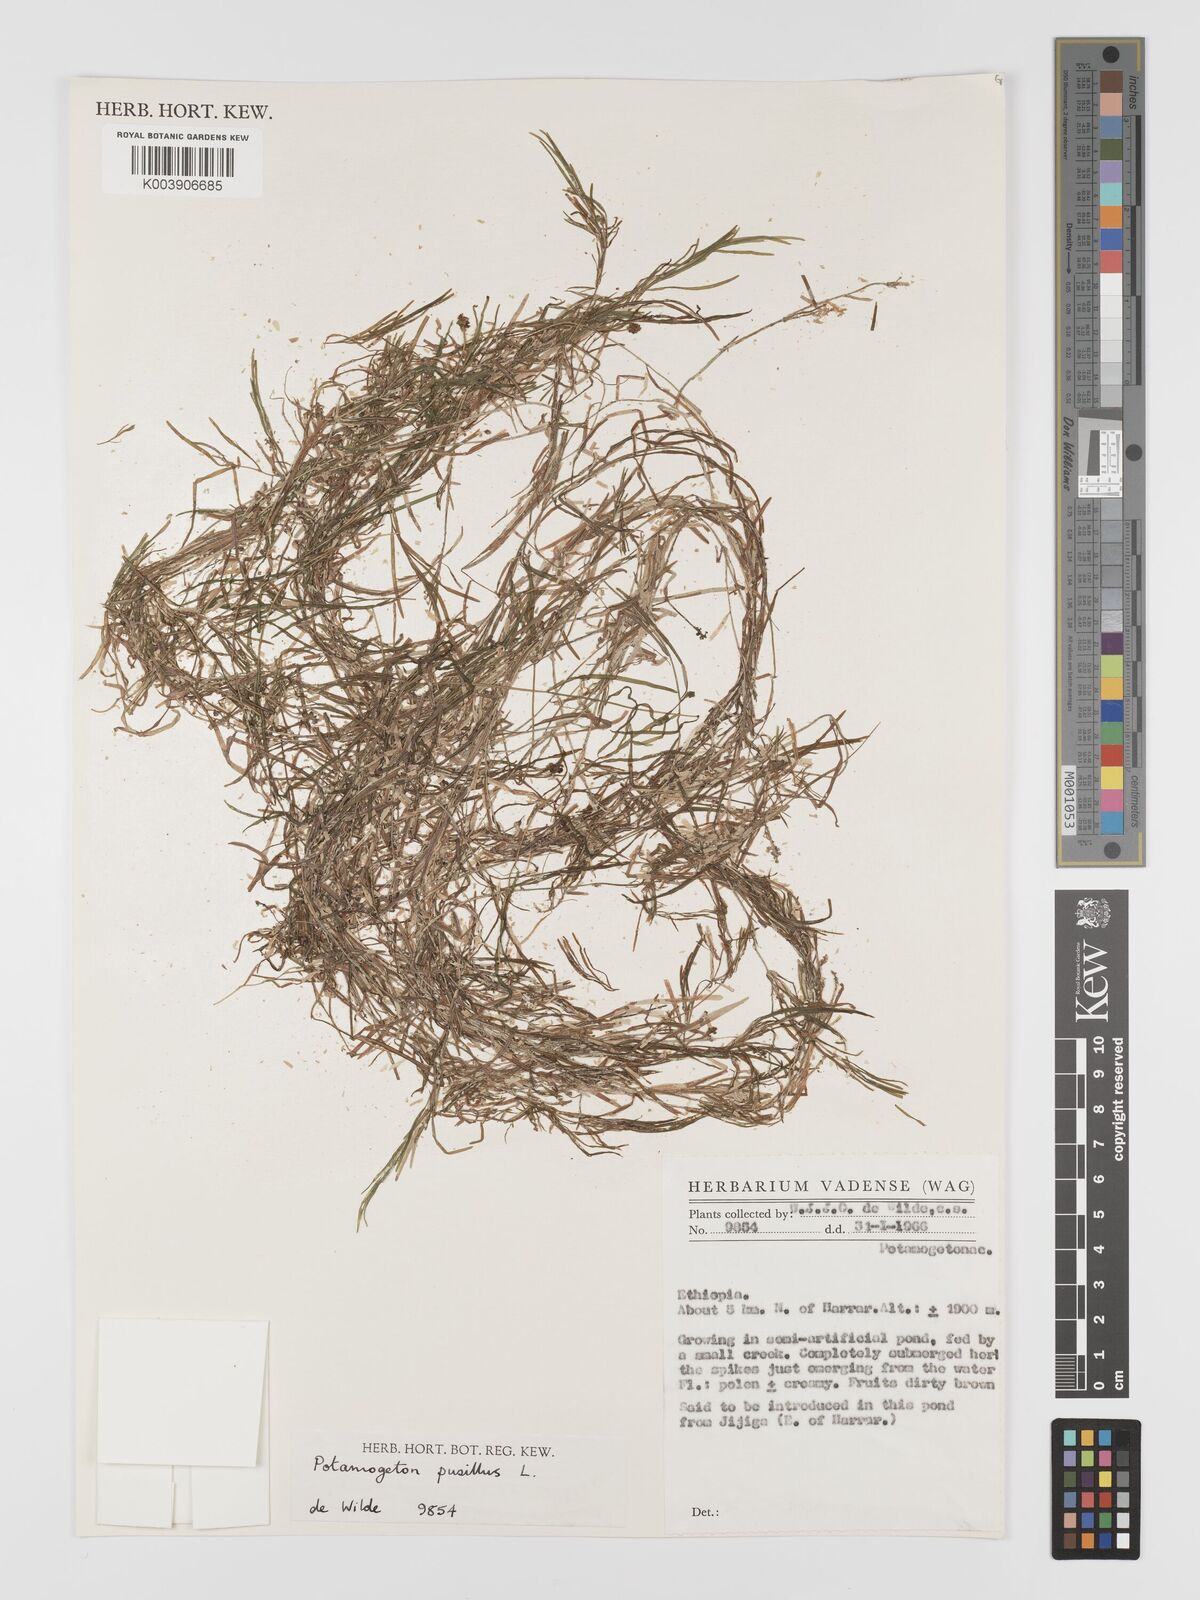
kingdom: Plantae
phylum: Tracheophyta
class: Liliopsida
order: Alismatales
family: Potamogetonaceae
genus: Potamogeton
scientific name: Potamogeton parvifolius
